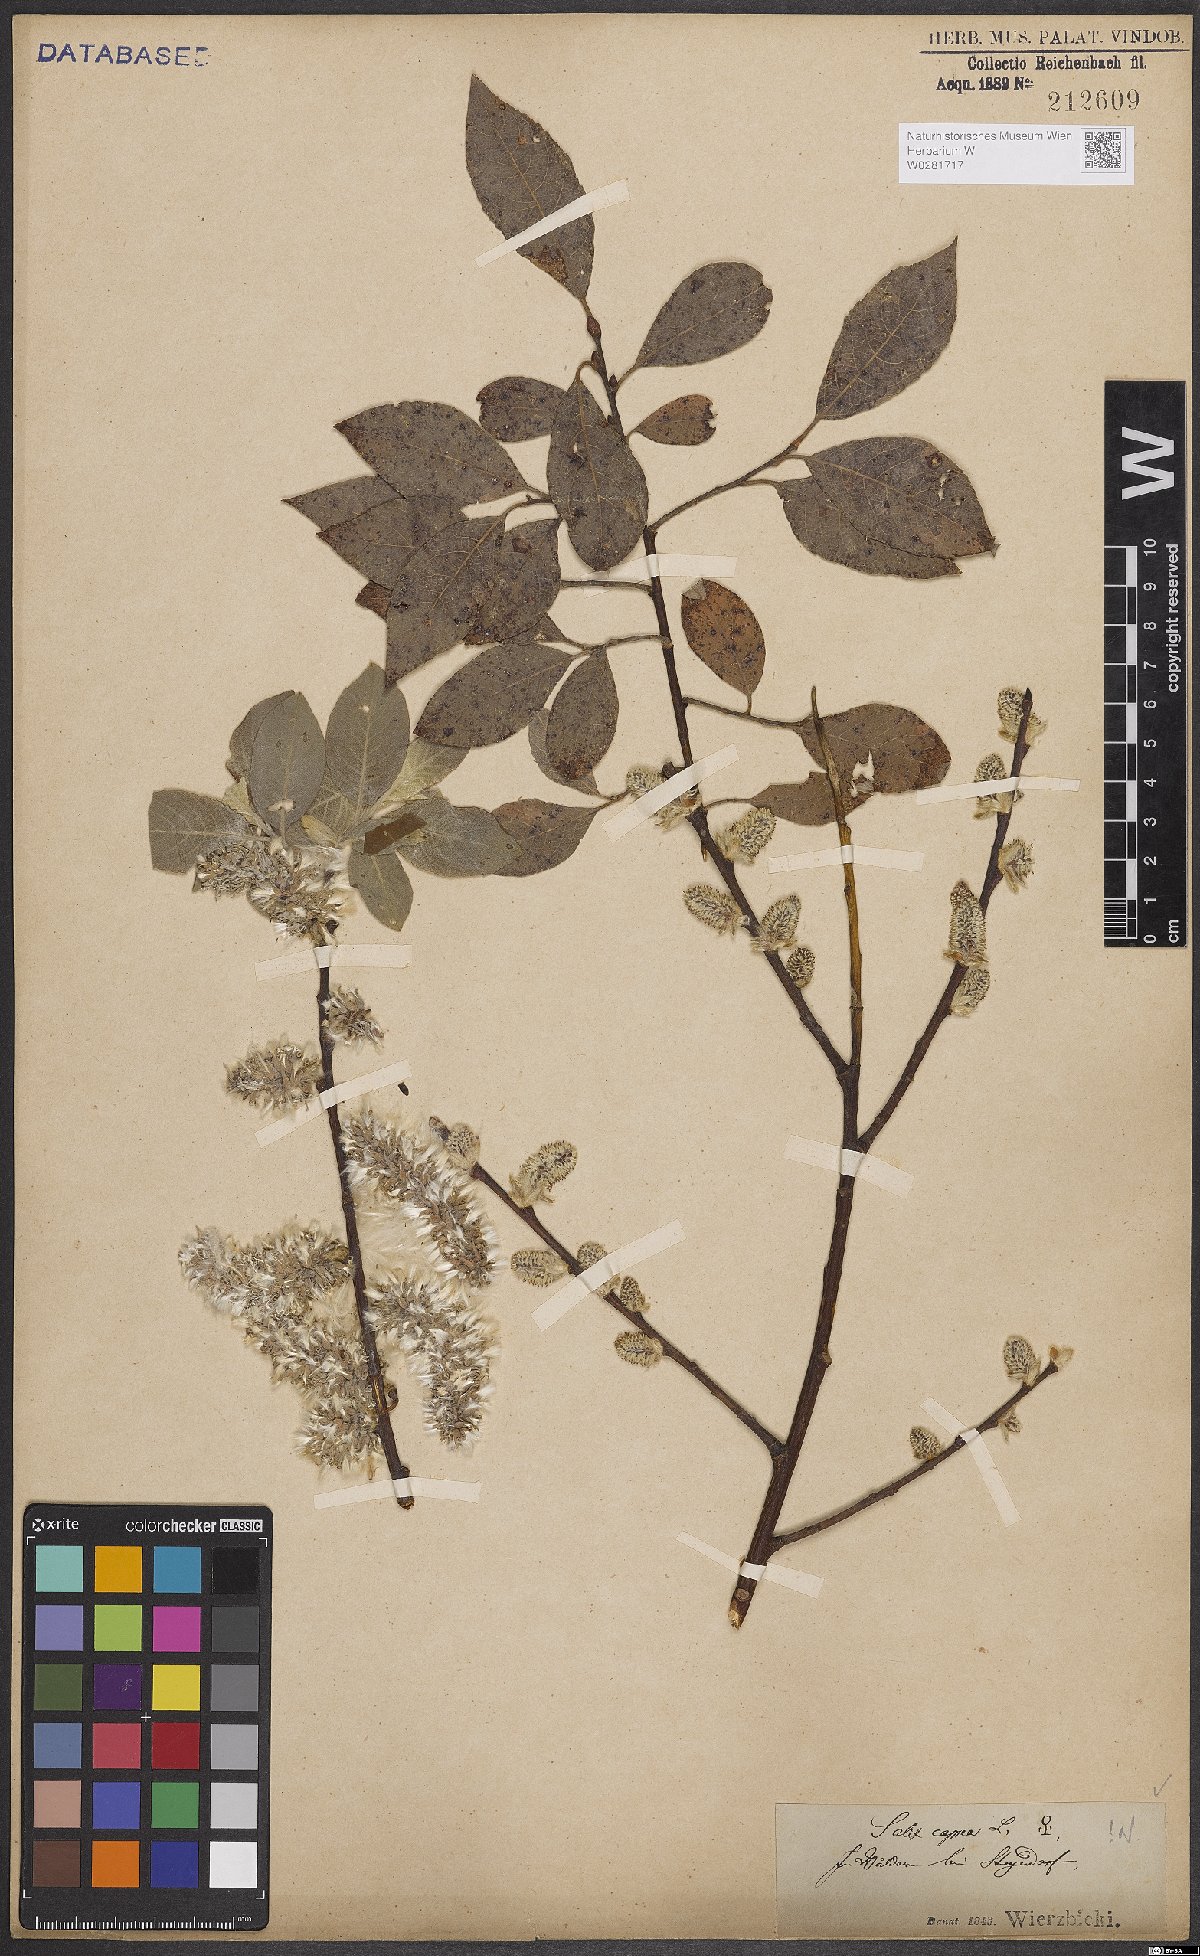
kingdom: Plantae
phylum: Tracheophyta
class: Magnoliopsida
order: Malpighiales
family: Salicaceae
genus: Salix
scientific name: Salix caprea
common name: Goat willow
